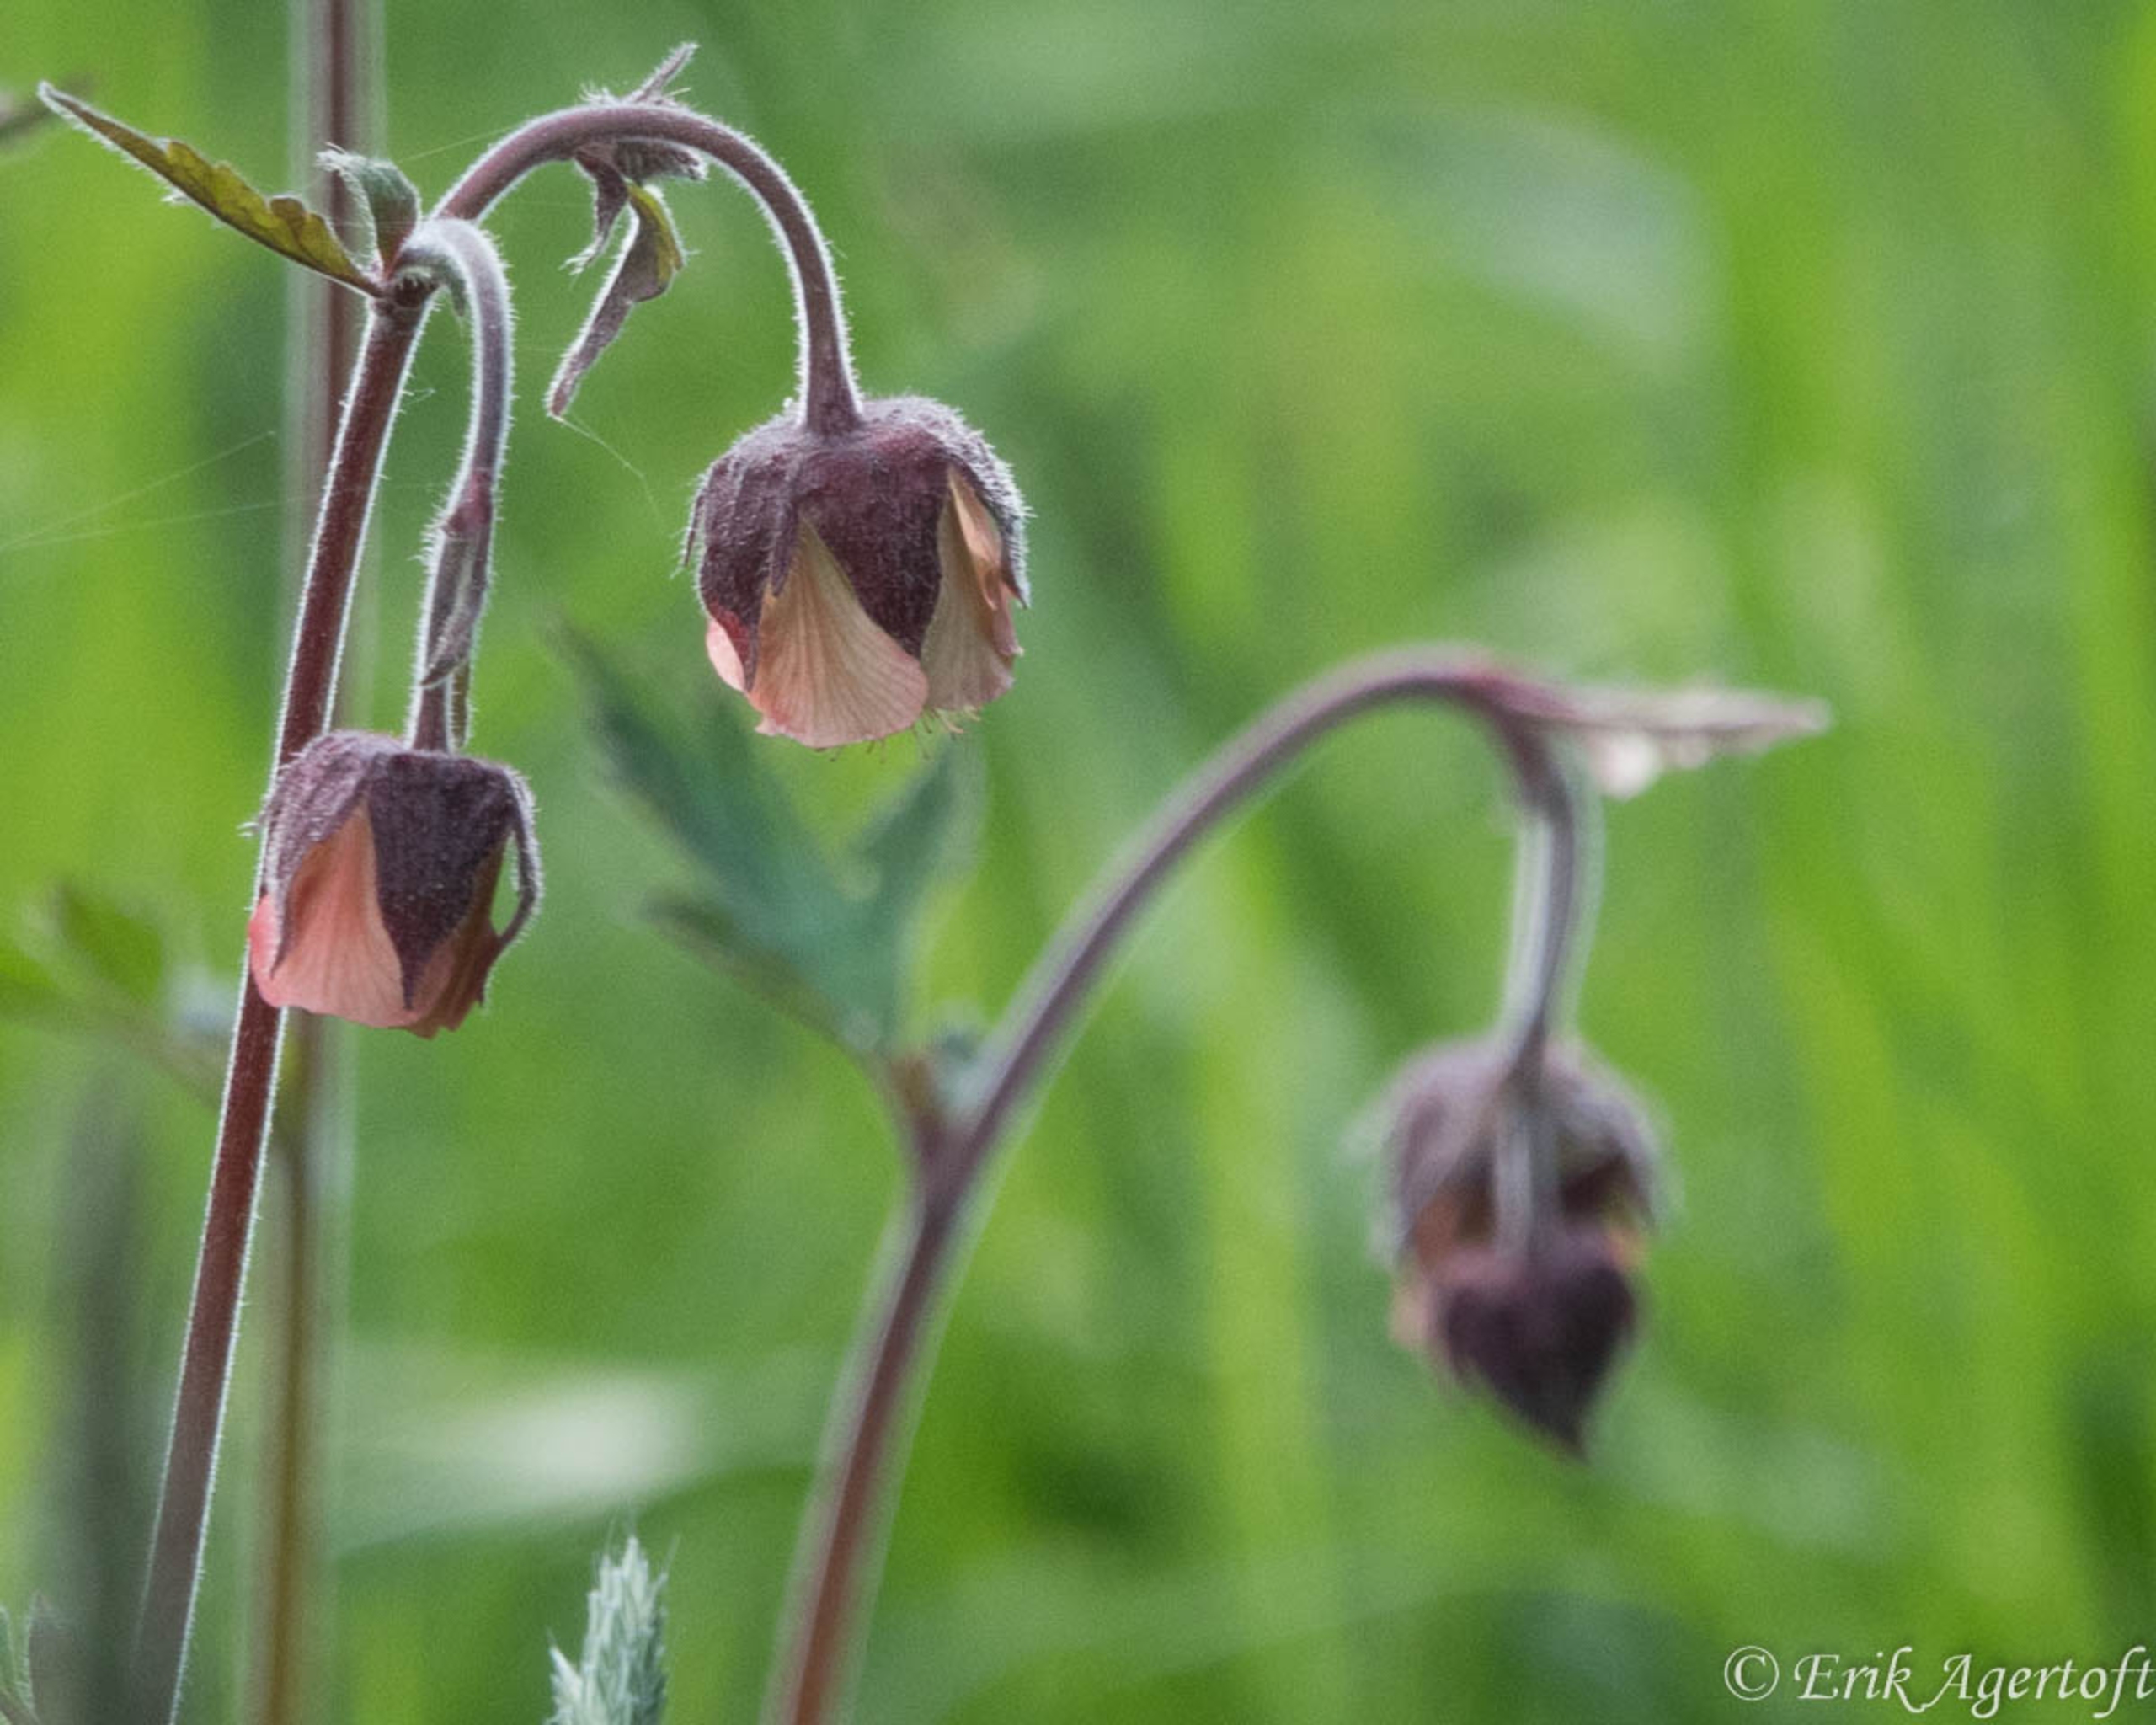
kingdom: Plantae
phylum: Tracheophyta
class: Magnoliopsida
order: Rosales
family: Rosaceae
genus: Geum
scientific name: Geum rivale
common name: Eng-nellikerod
